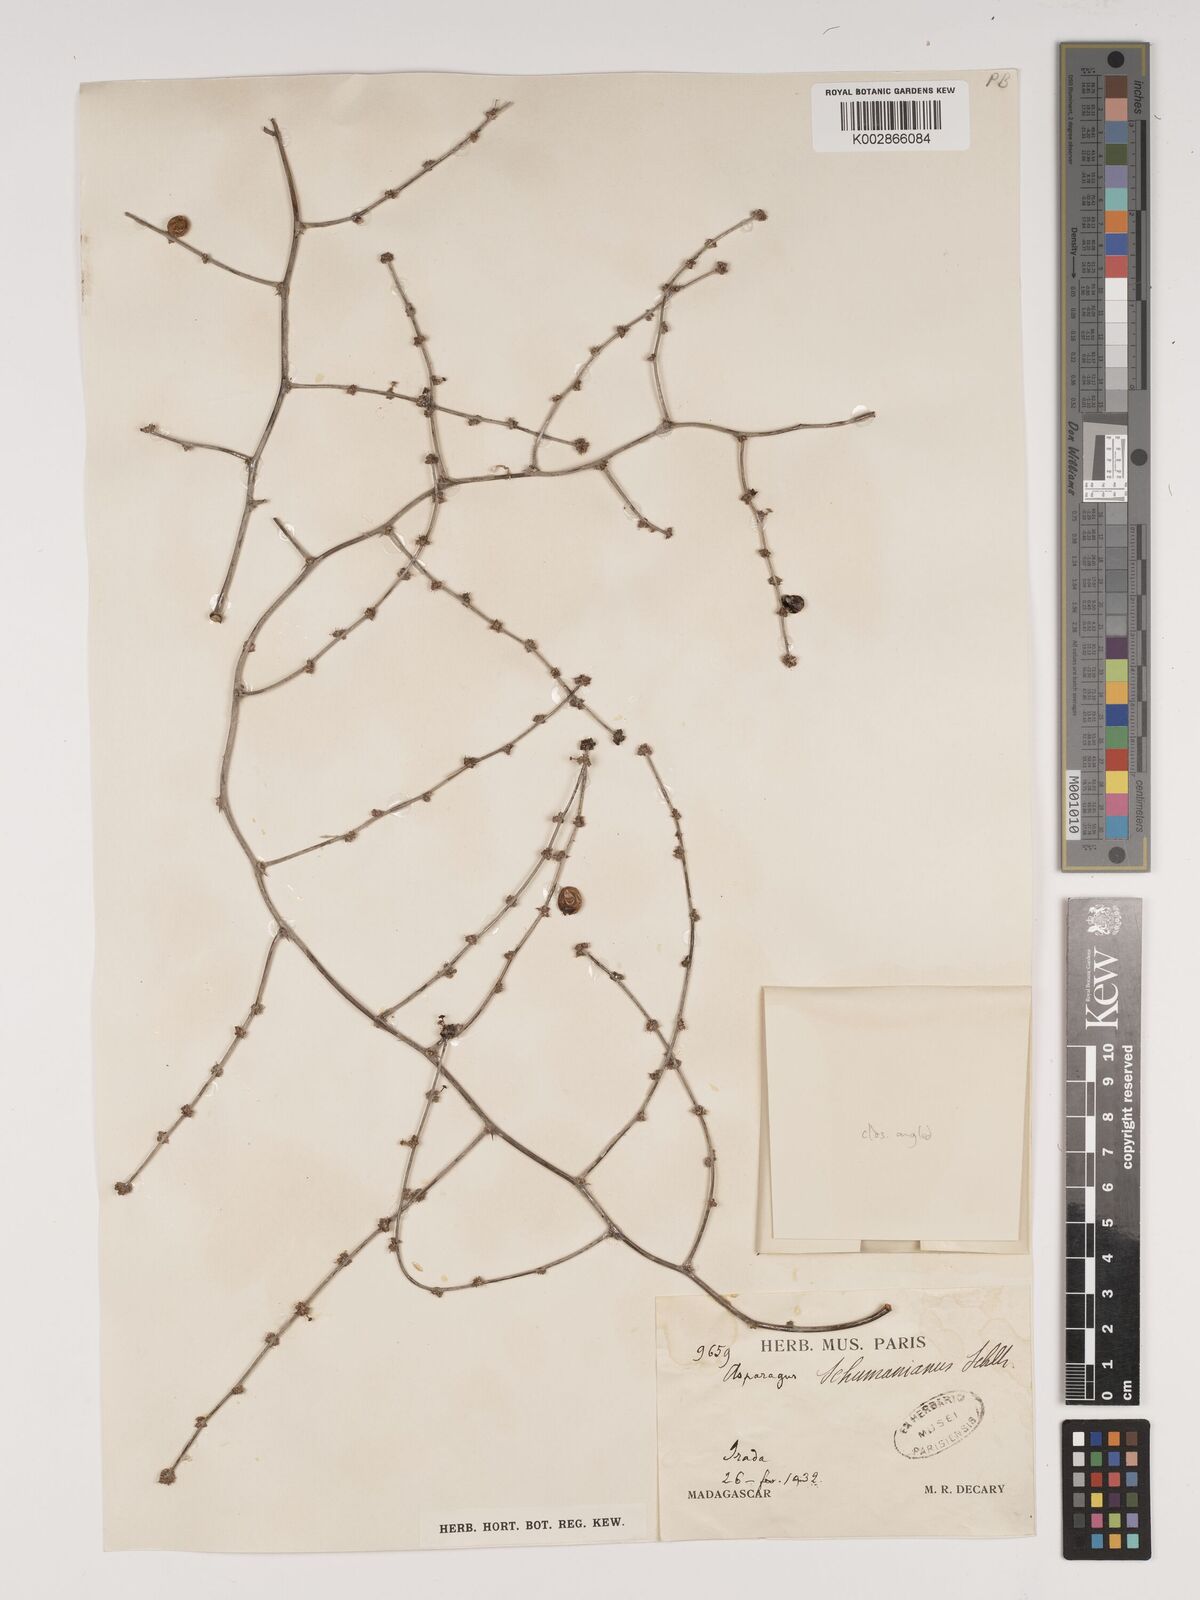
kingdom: Plantae
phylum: Tracheophyta
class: Liliopsida
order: Asparagales
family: Asparagaceae
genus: Asparagus
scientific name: Asparagus schumanianus
